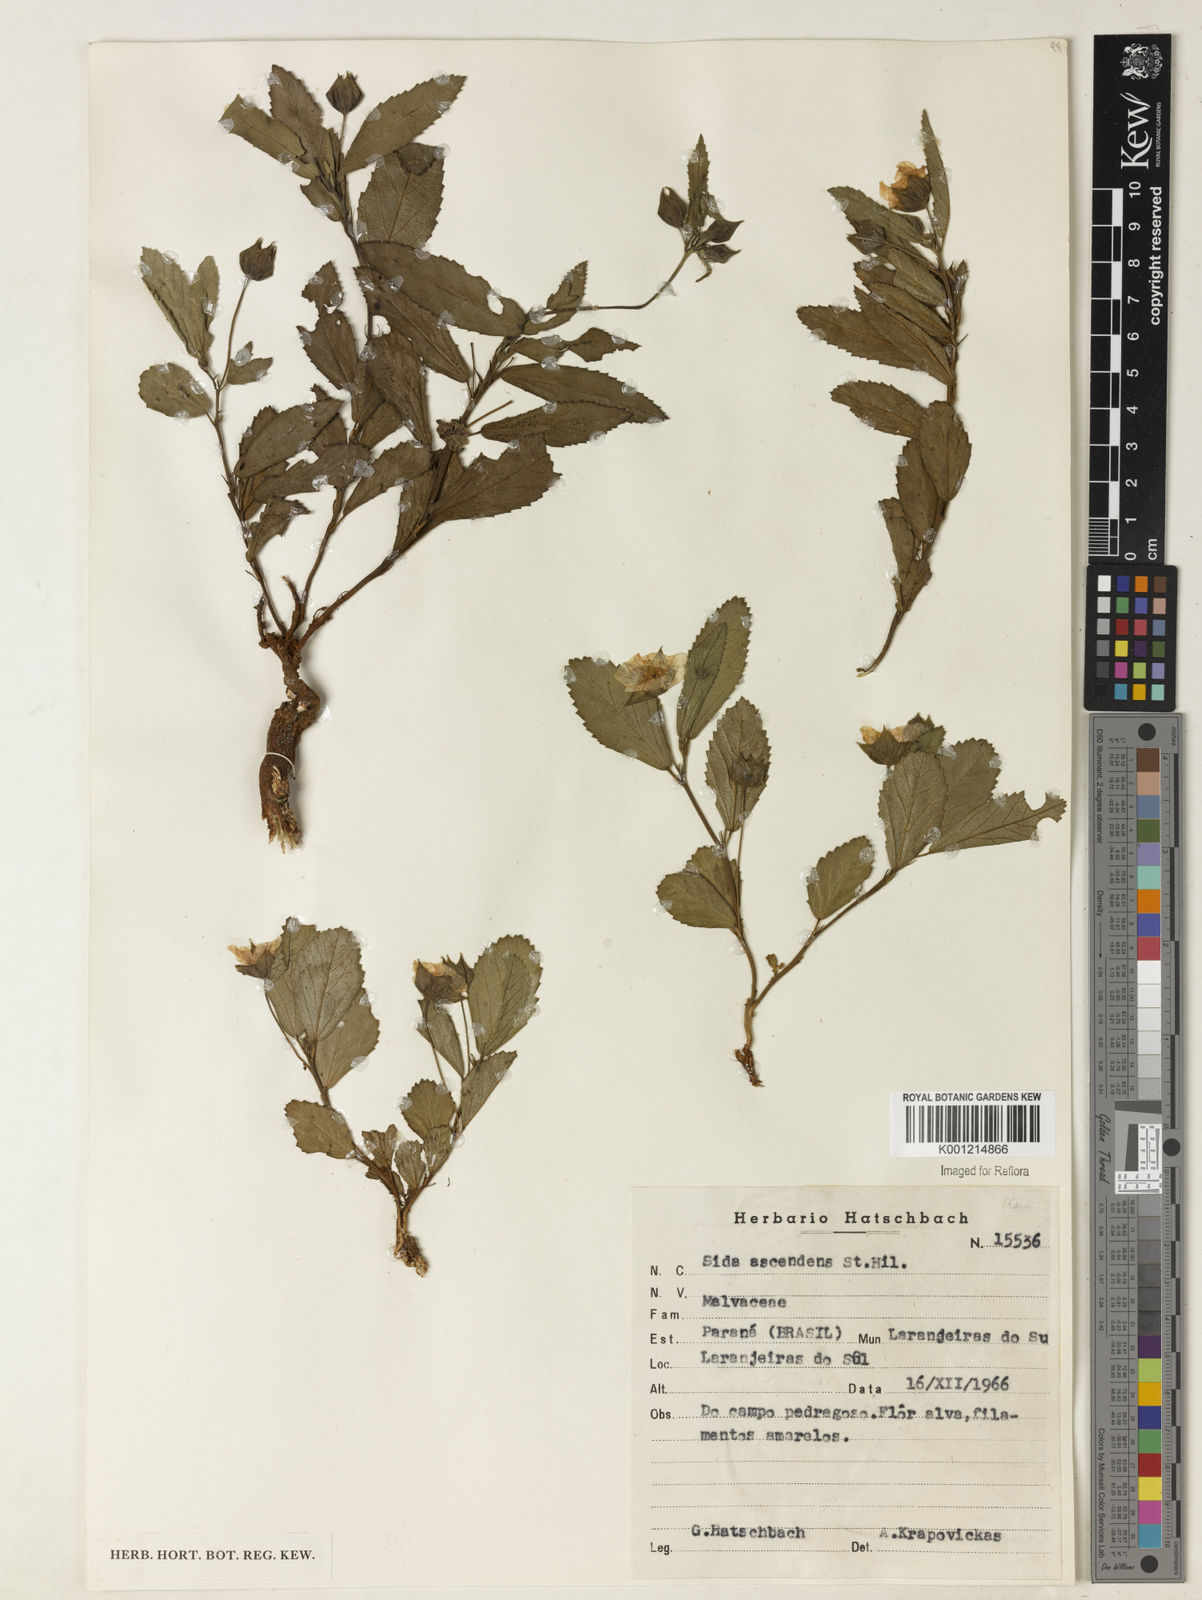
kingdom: Plantae
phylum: Tracheophyta
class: Magnoliopsida
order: Malvales
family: Malvaceae
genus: Sida
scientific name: Sida adscendens
